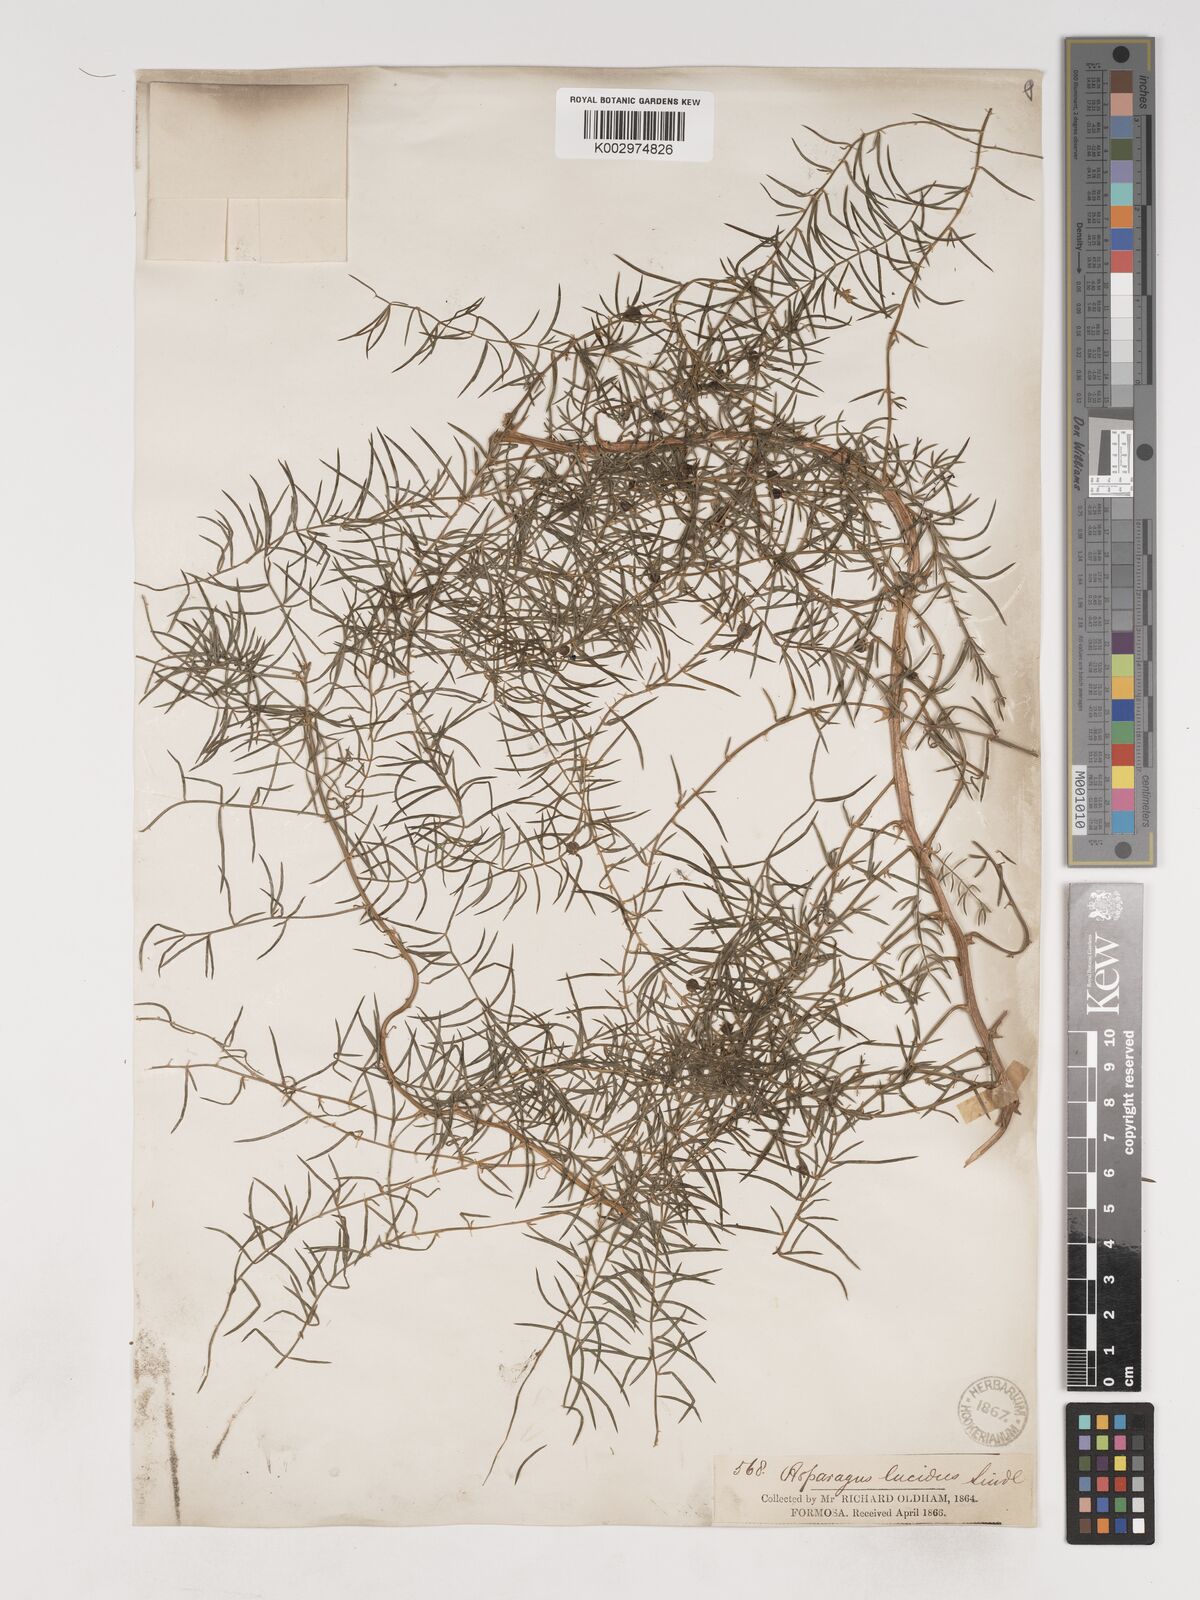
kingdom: Plantae
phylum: Tracheophyta
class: Liliopsida
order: Asparagales
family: Asparagaceae
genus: Asparagus
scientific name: Asparagus cochinchinensis
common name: Chinese asparagus
